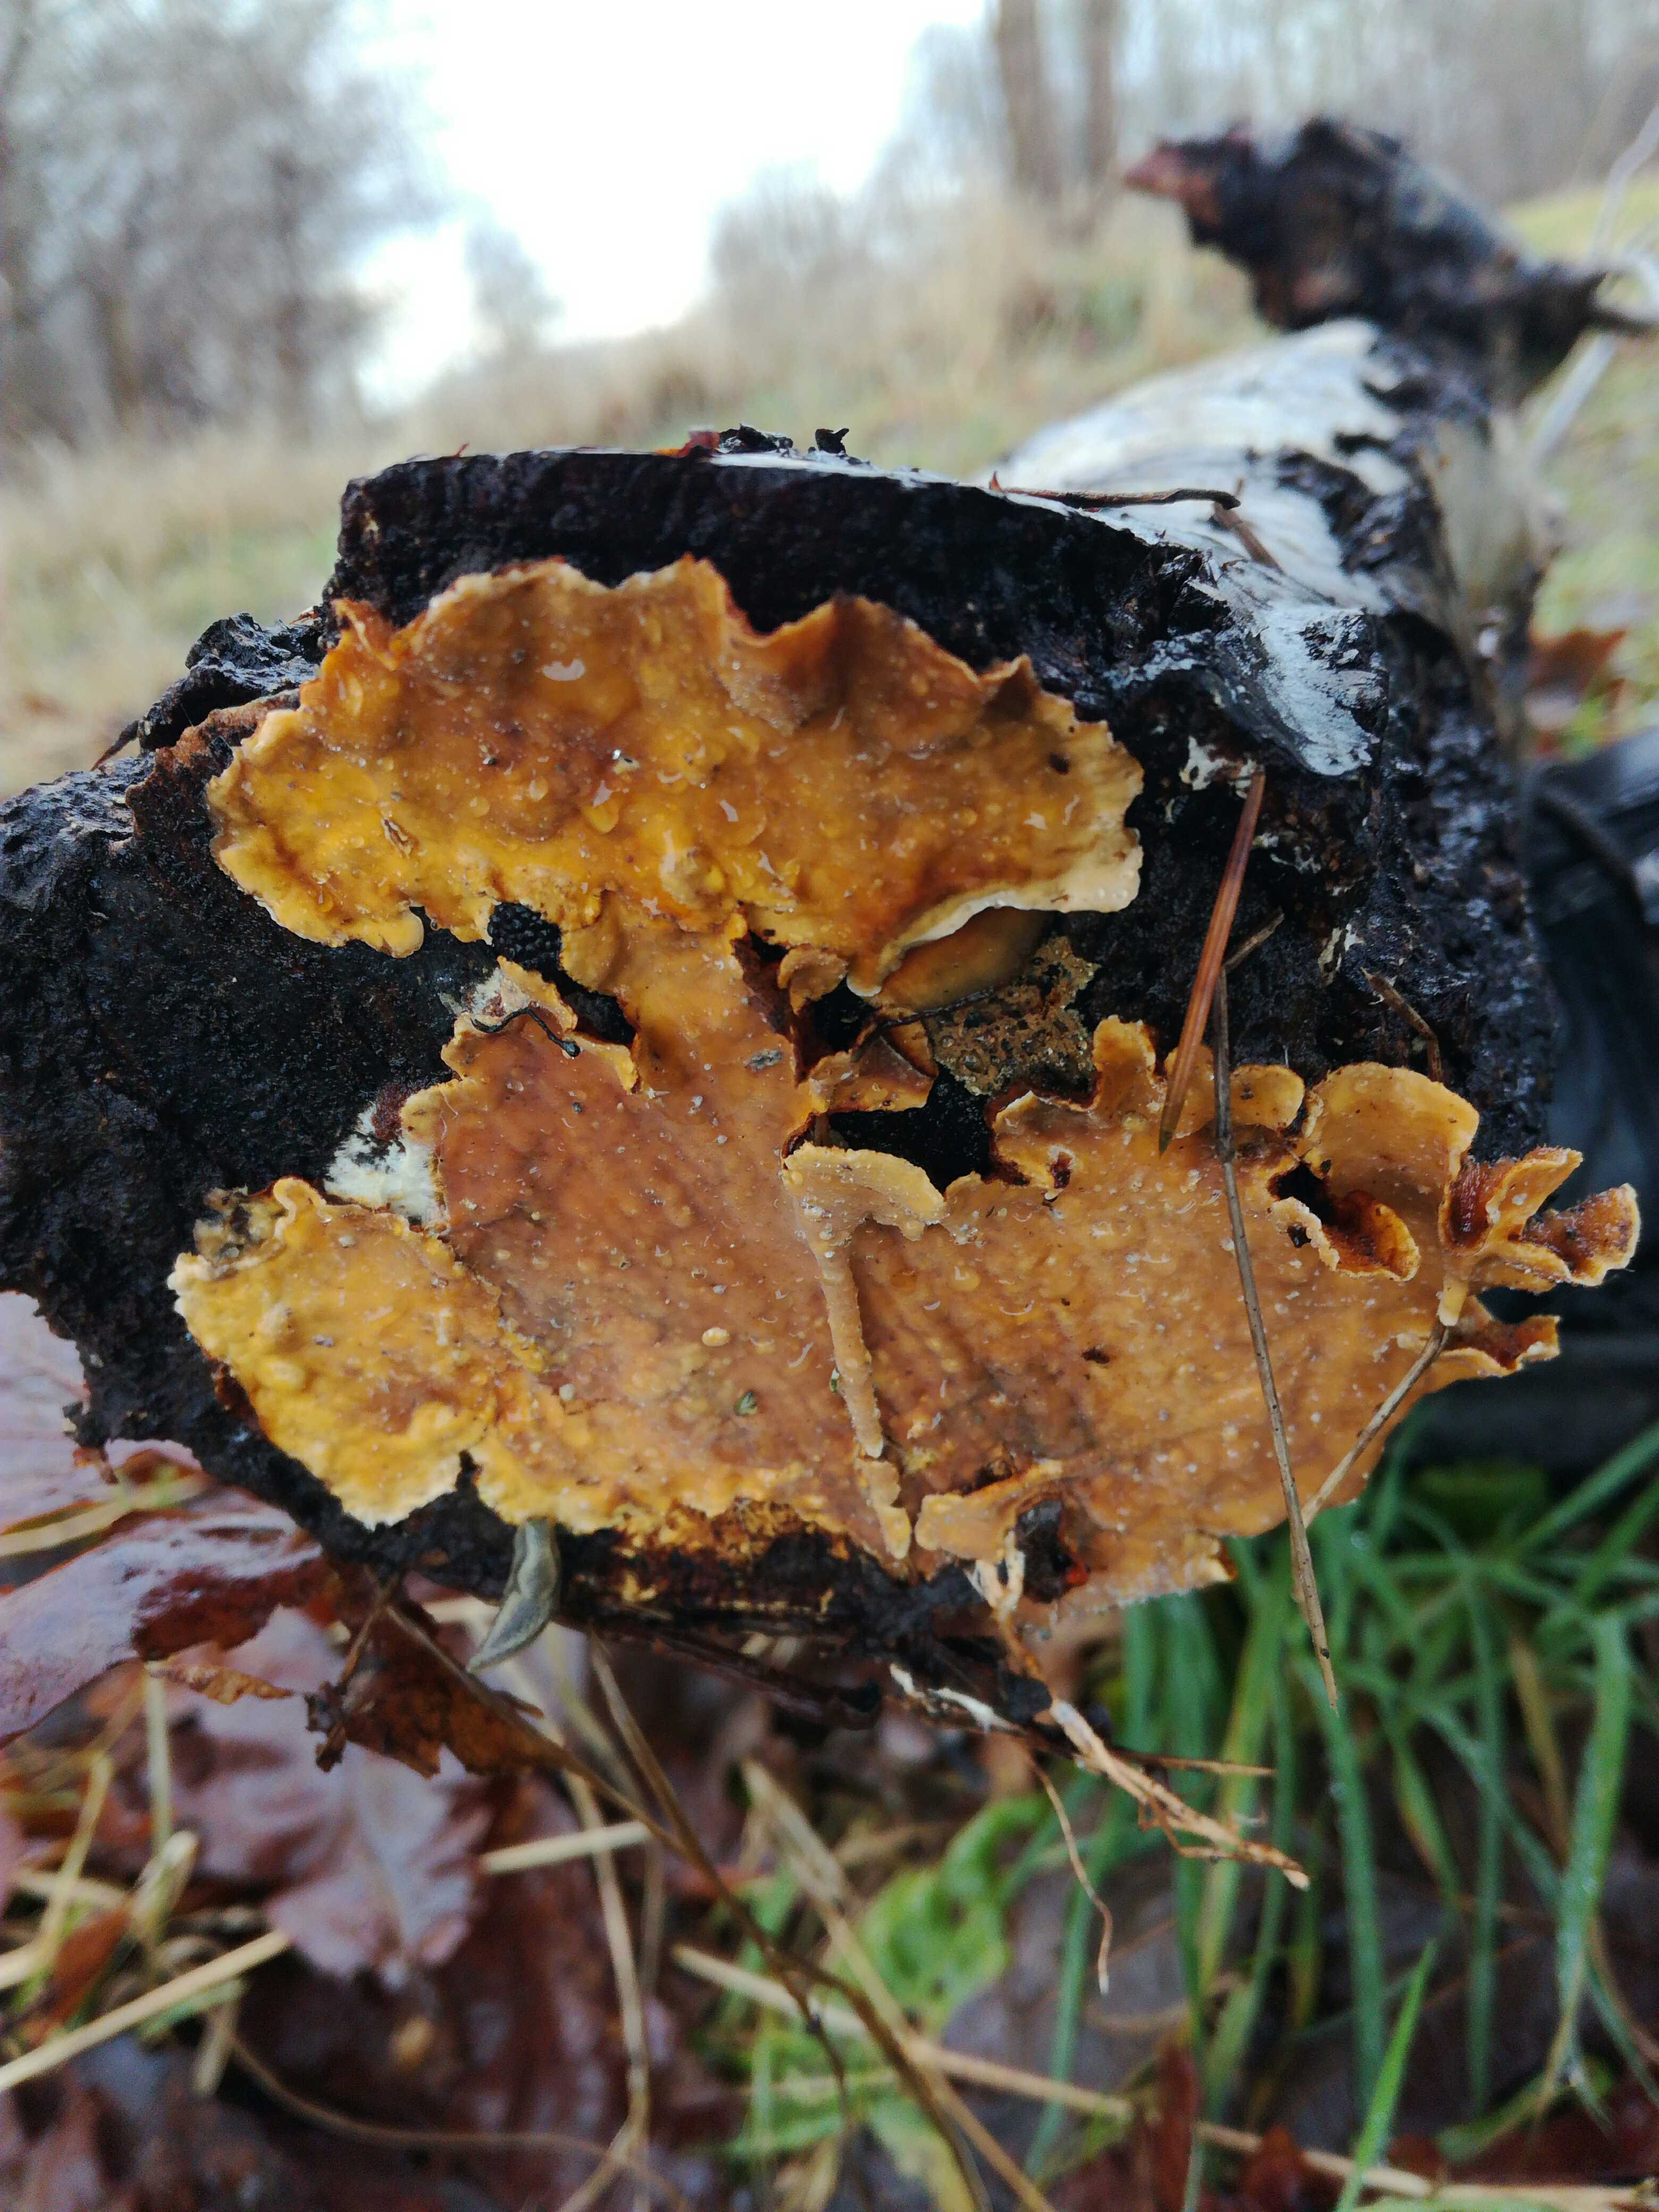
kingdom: Fungi
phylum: Basidiomycota
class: Agaricomycetes
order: Russulales
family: Stereaceae
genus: Stereum
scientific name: Stereum hirsutum
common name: håret lædersvamp
